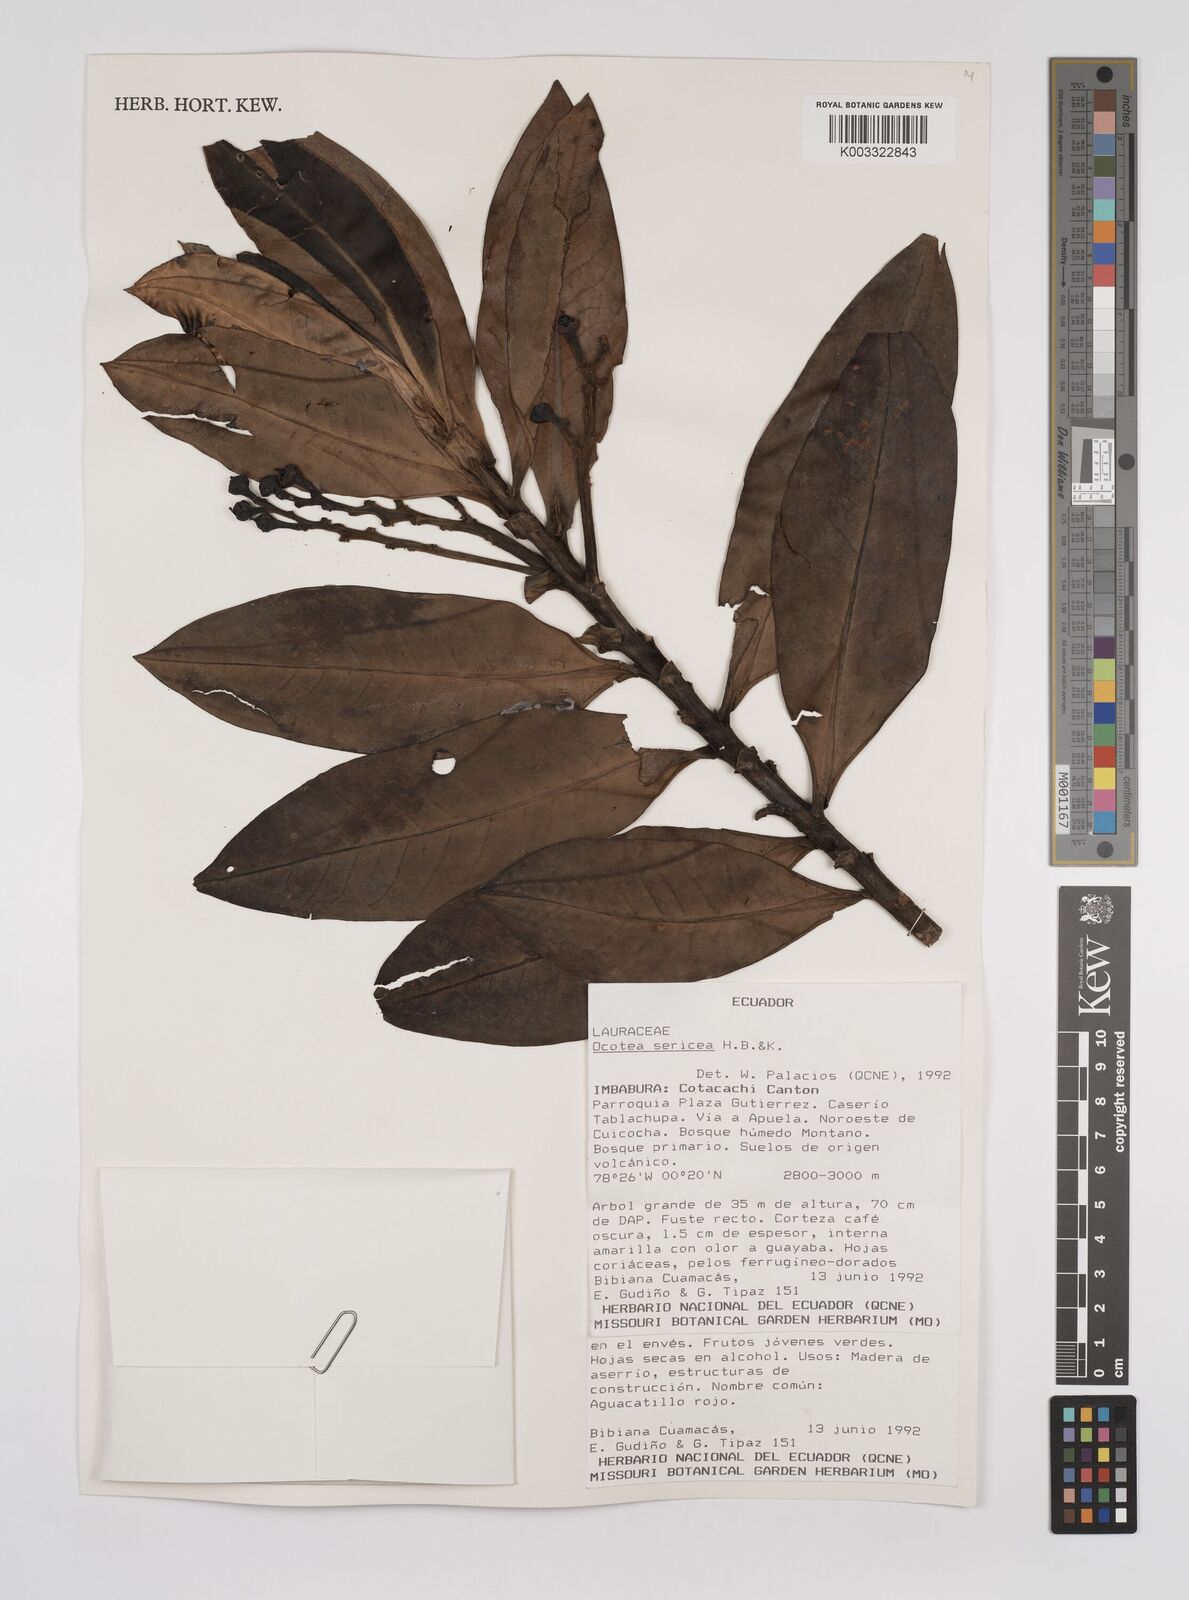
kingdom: Plantae
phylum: Tracheophyta
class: Magnoliopsida
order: Laurales
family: Lauraceae
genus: Ocotea
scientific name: Ocotea
